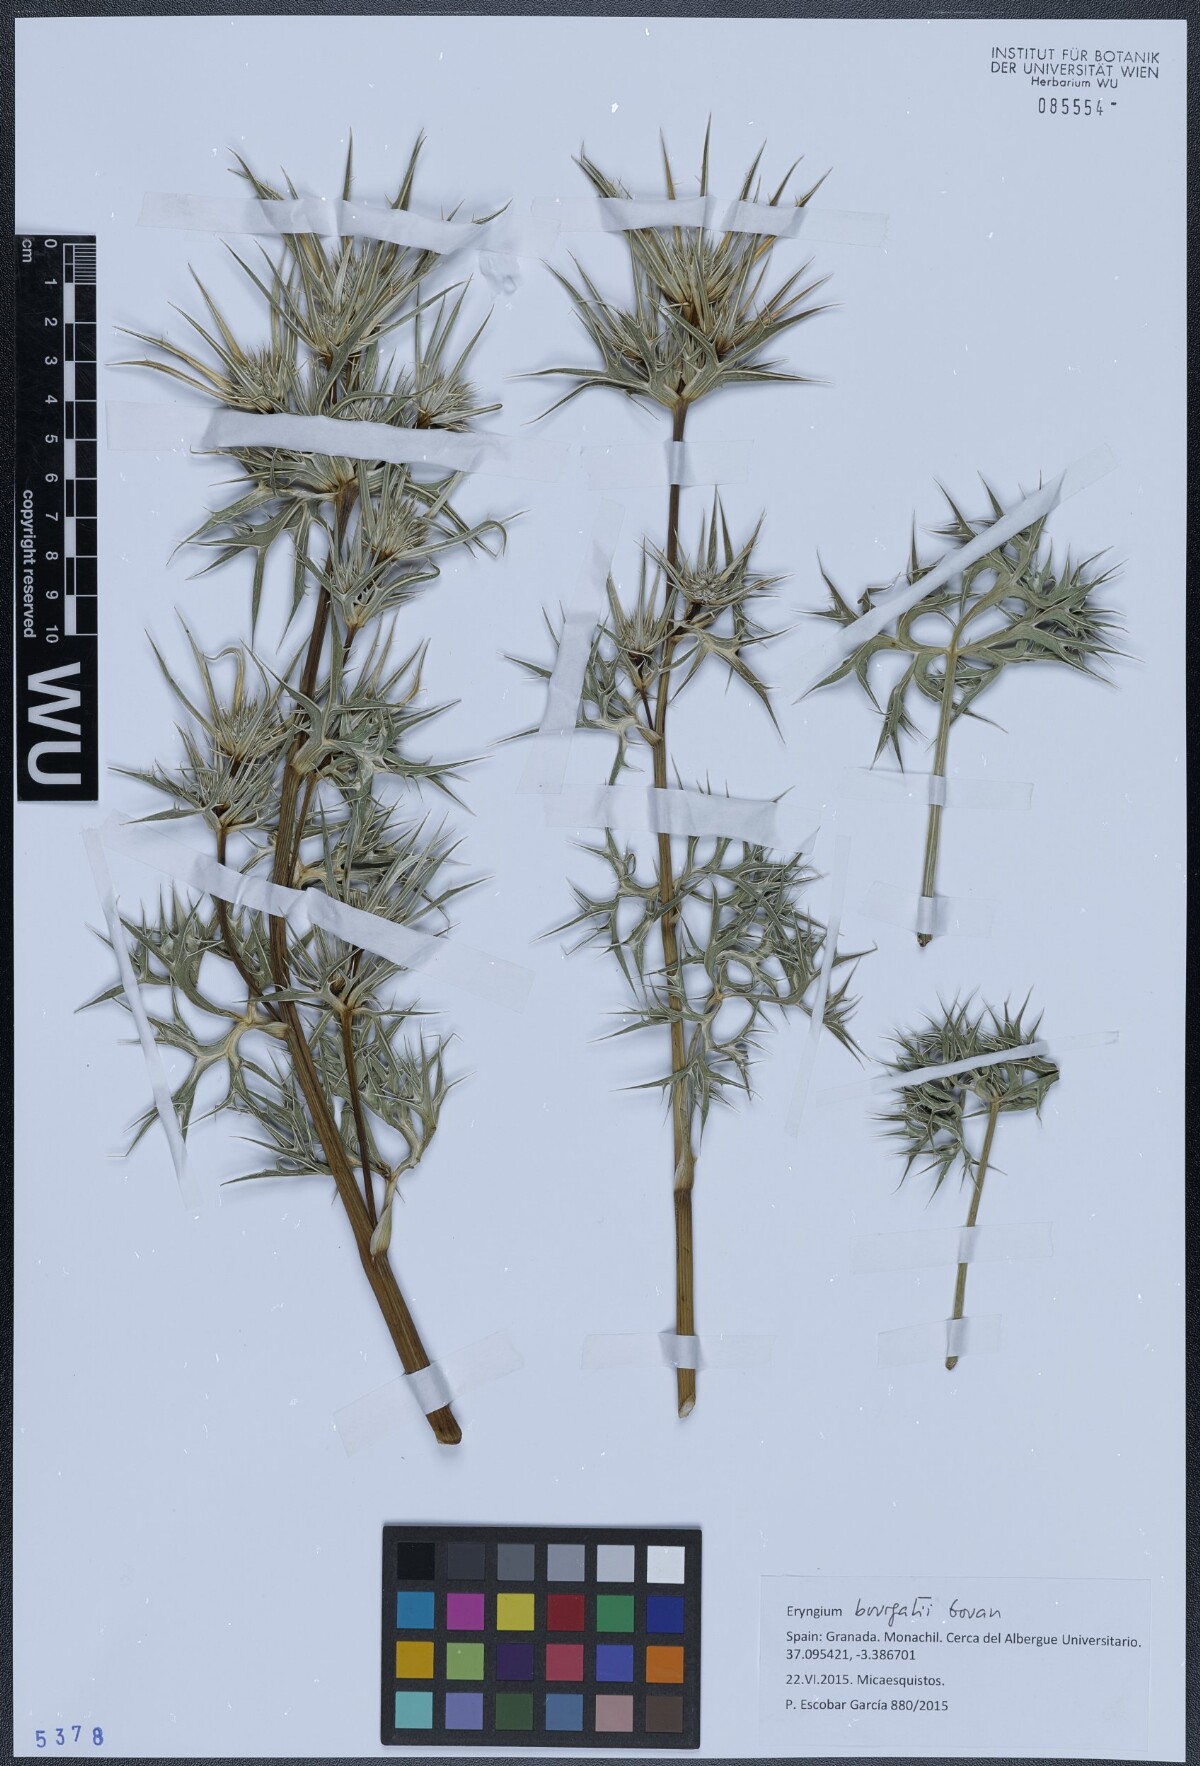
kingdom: Plantae
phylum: Tracheophyta
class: Magnoliopsida
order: Apiales
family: Apiaceae
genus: Eryngium
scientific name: Eryngium bourgatii
